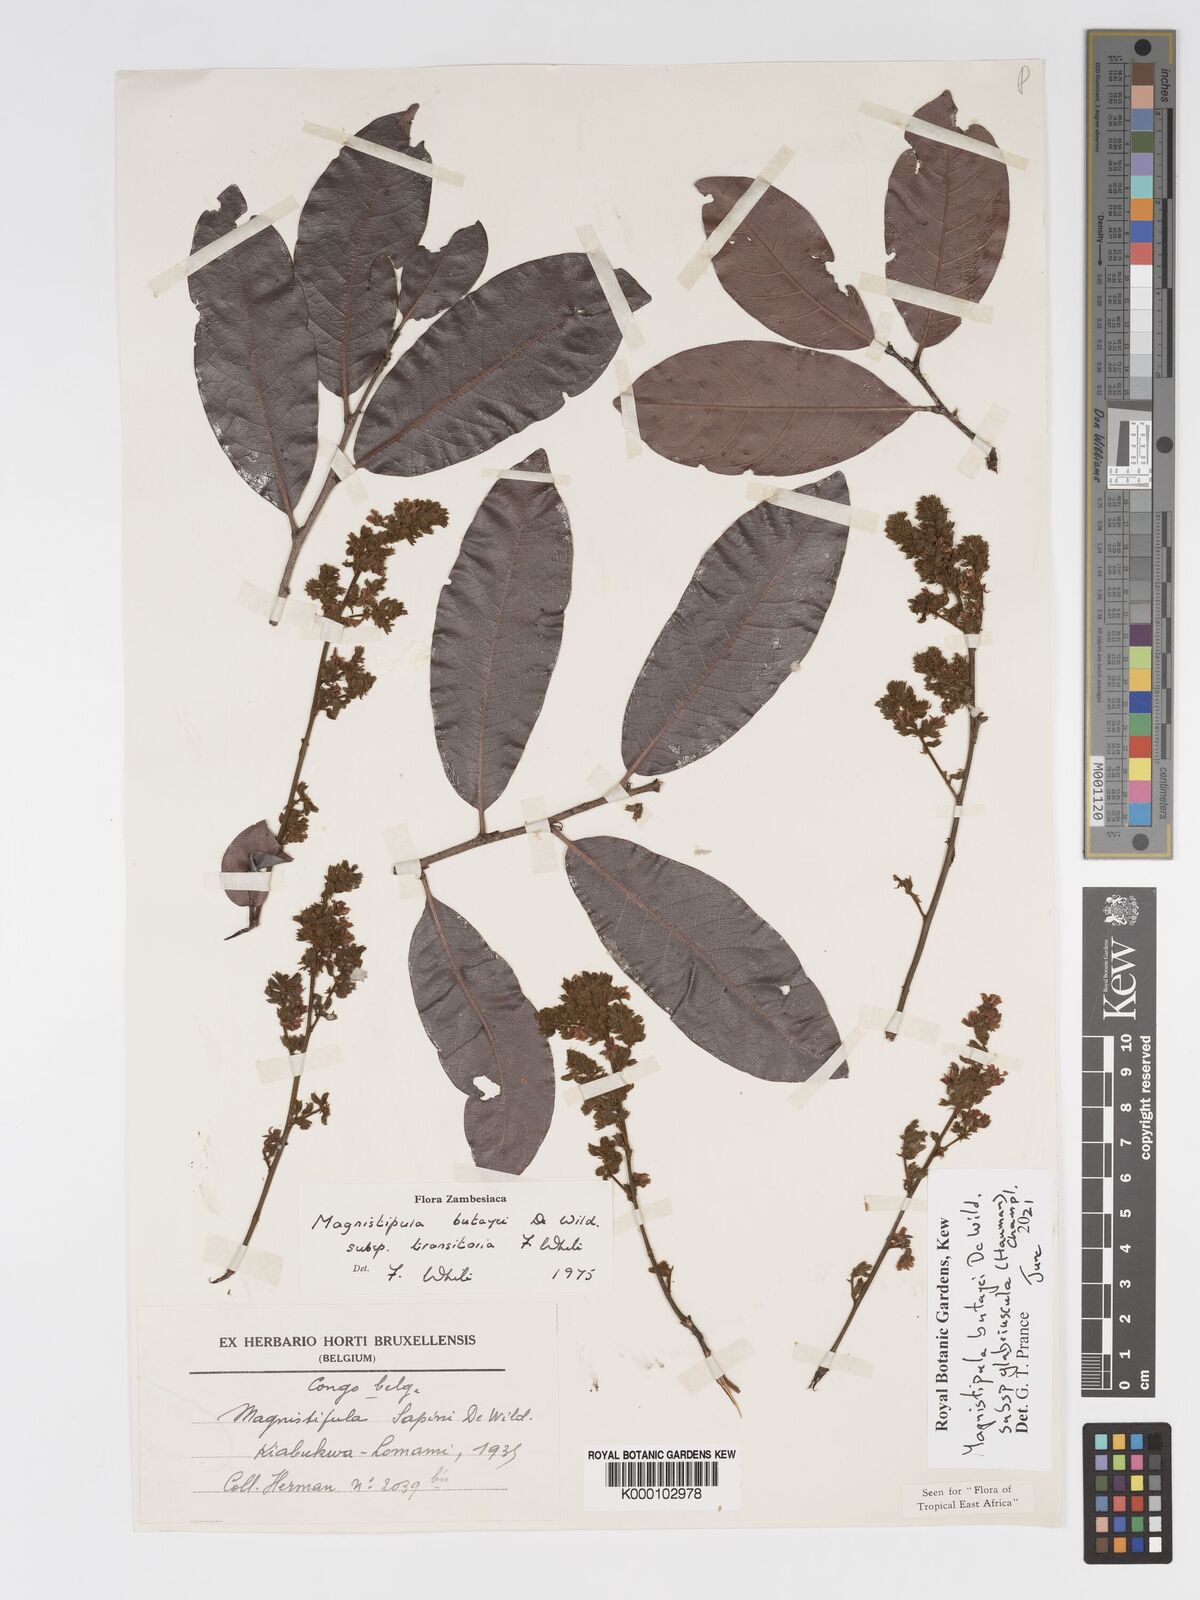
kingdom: Plantae
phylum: Tracheophyta
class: Magnoliopsida
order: Malpighiales
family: Chrysobalanaceae
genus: Magnistipula
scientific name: Magnistipula butayei
